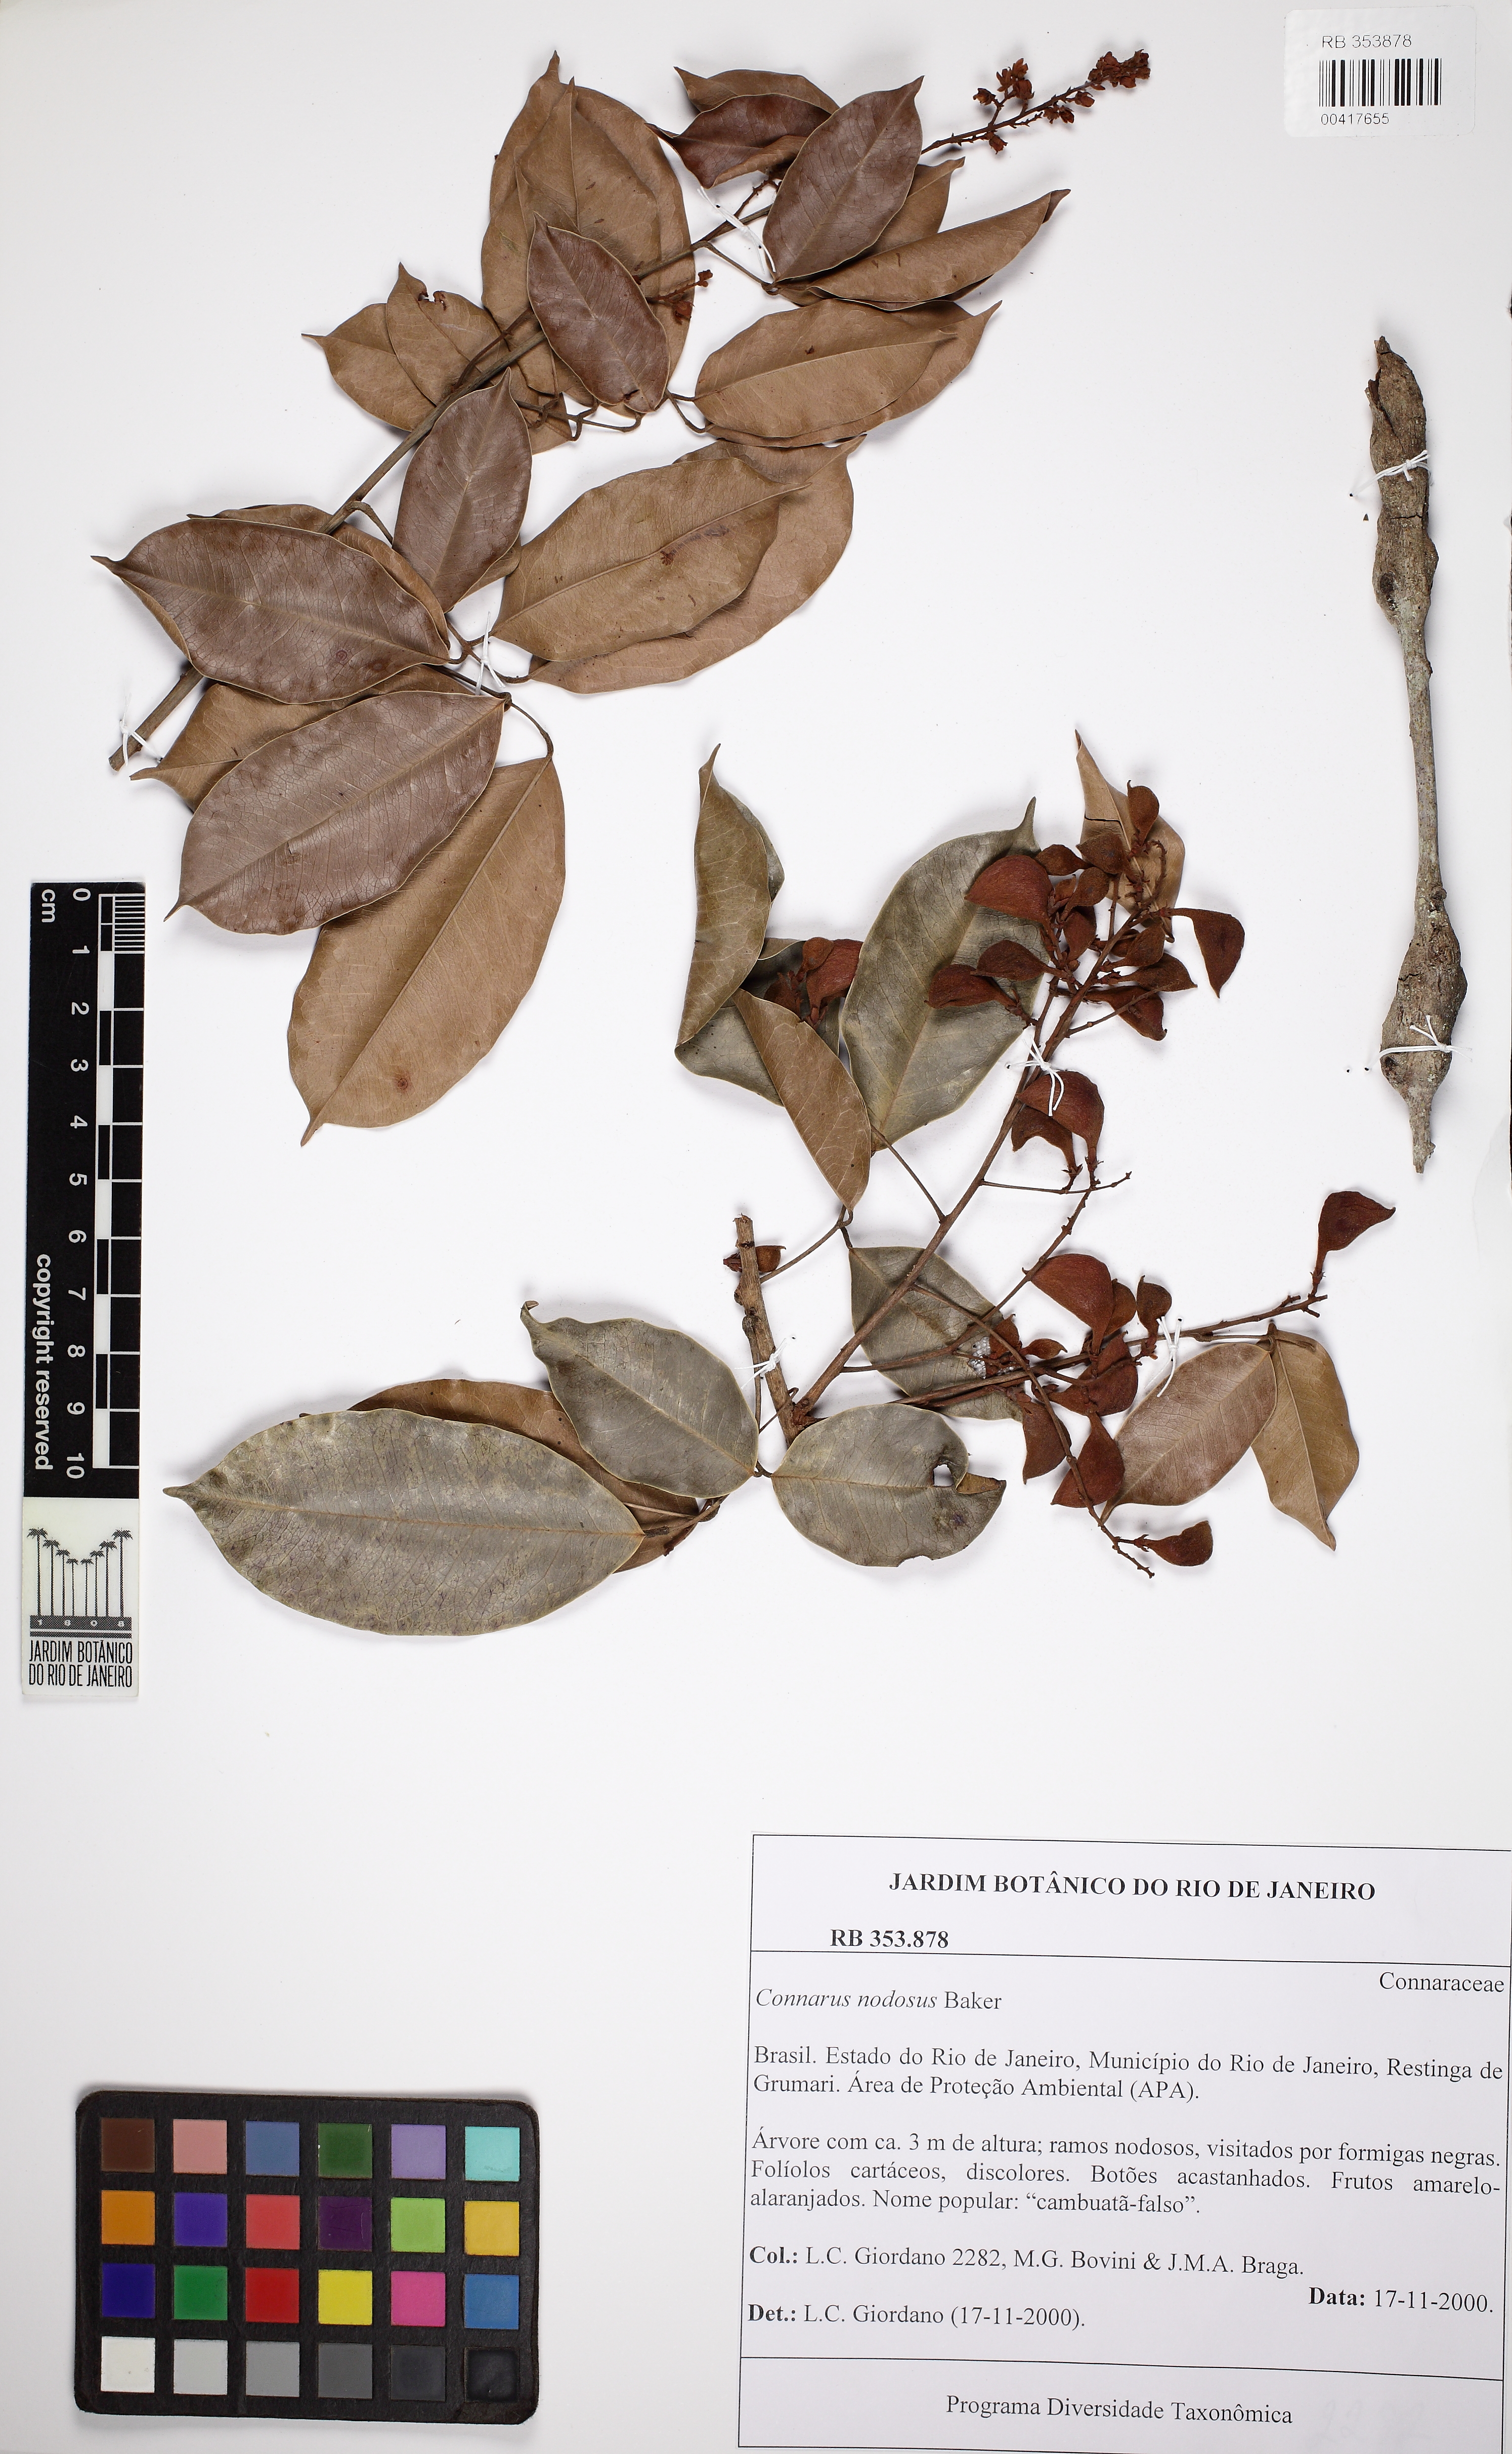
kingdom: Plantae
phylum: Tracheophyta
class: Magnoliopsida
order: Oxalidales
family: Connaraceae
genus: Connarus
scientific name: Connarus nodosus
